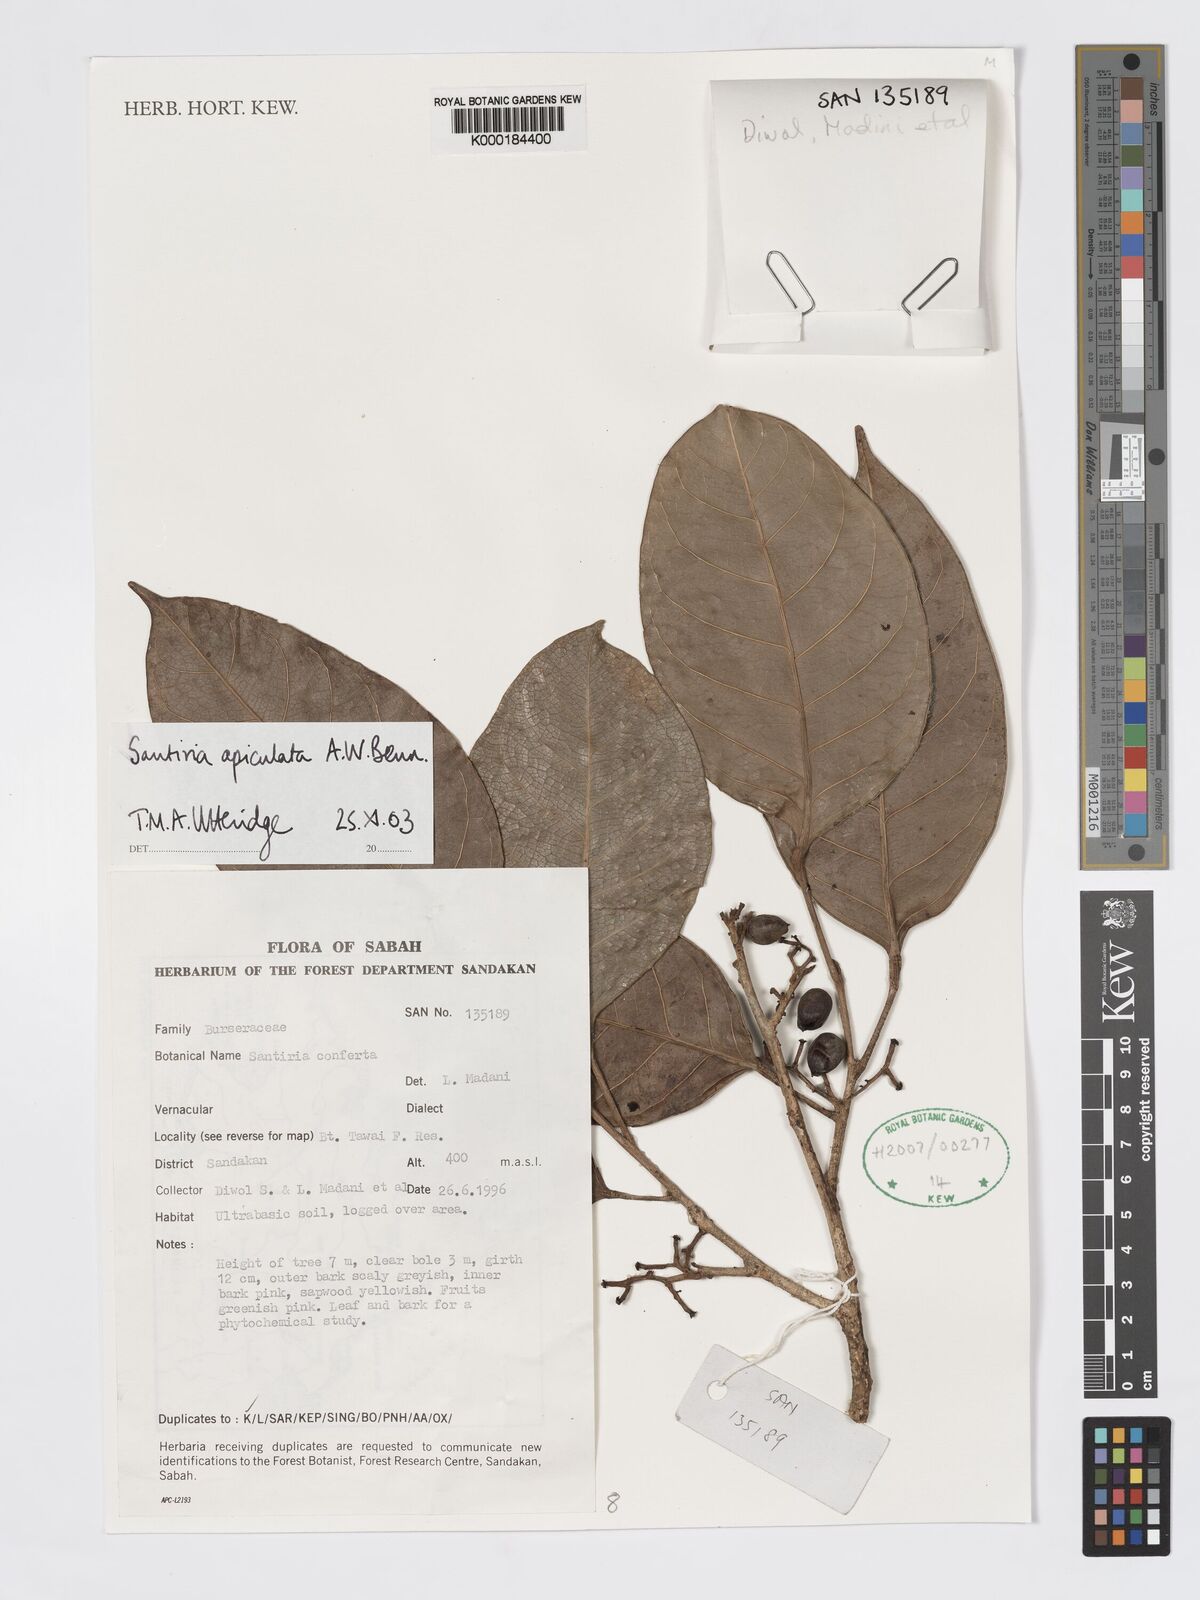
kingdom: Plantae
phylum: Tracheophyta
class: Magnoliopsida
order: Sapindales
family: Burseraceae
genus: Santiria
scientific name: Santiria apiculata
